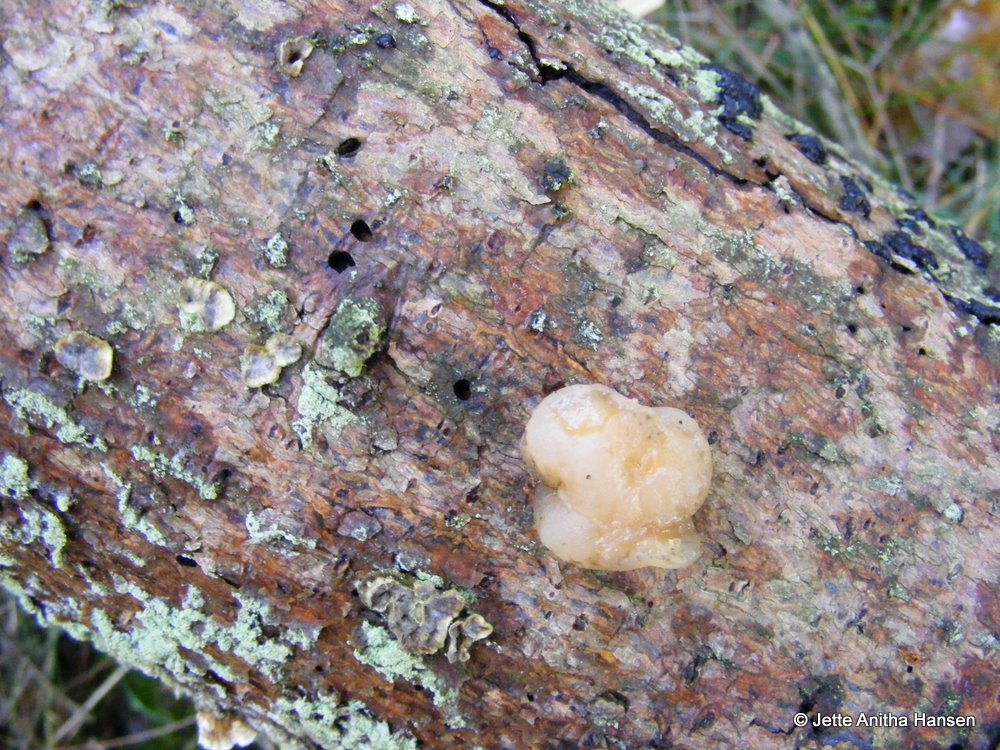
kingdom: Fungi
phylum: Basidiomycota
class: Tremellomycetes
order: Tremellales
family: Naemateliaceae
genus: Naematelia
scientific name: Naematelia encephala
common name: fyrre-bævresvamp
